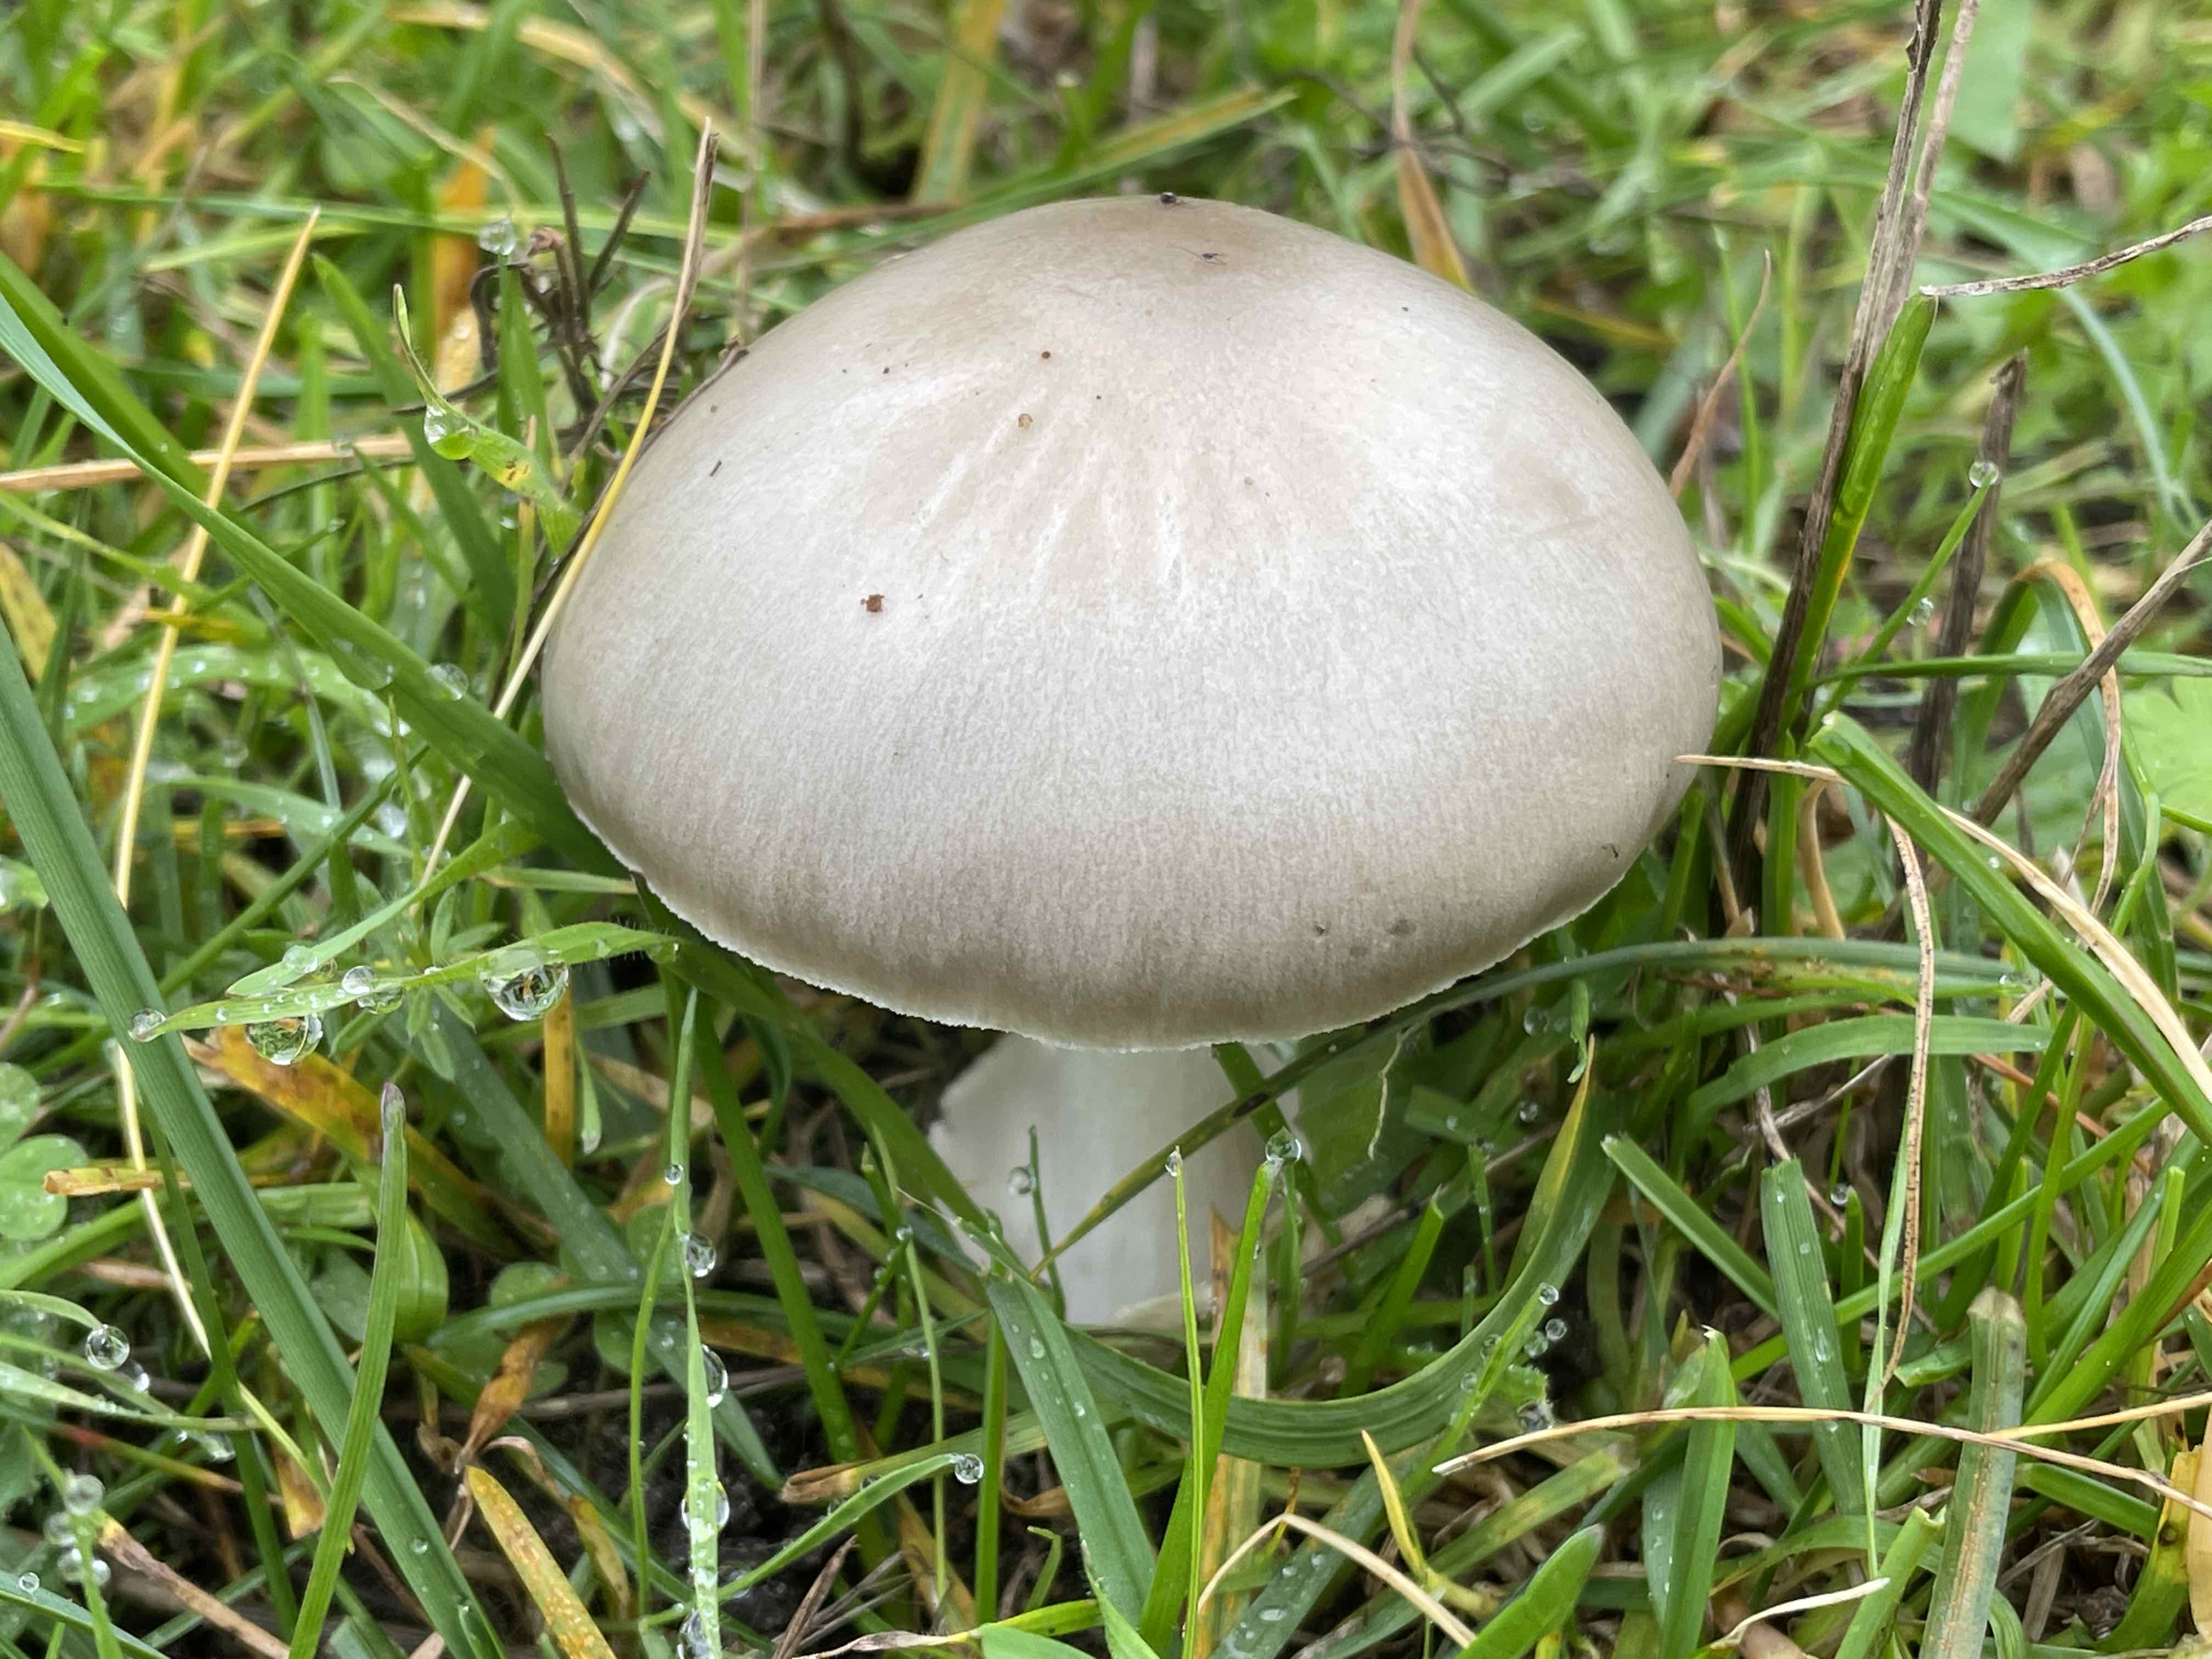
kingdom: Fungi
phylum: Basidiomycota
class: Agaricomycetes
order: Agaricales
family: Pluteaceae
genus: Volvopluteus
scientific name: Volvopluteus gloiocephalus
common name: høj posesvamp
